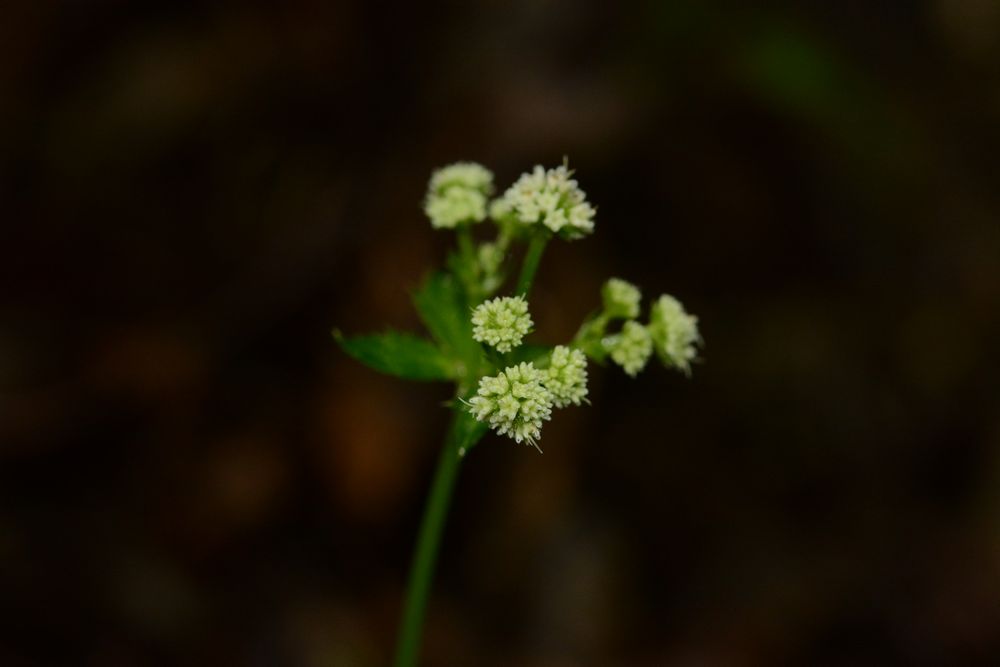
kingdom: Plantae
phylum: Tracheophyta
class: Magnoliopsida
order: Apiales
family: Apiaceae
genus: Sanicula
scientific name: Sanicula europaea
